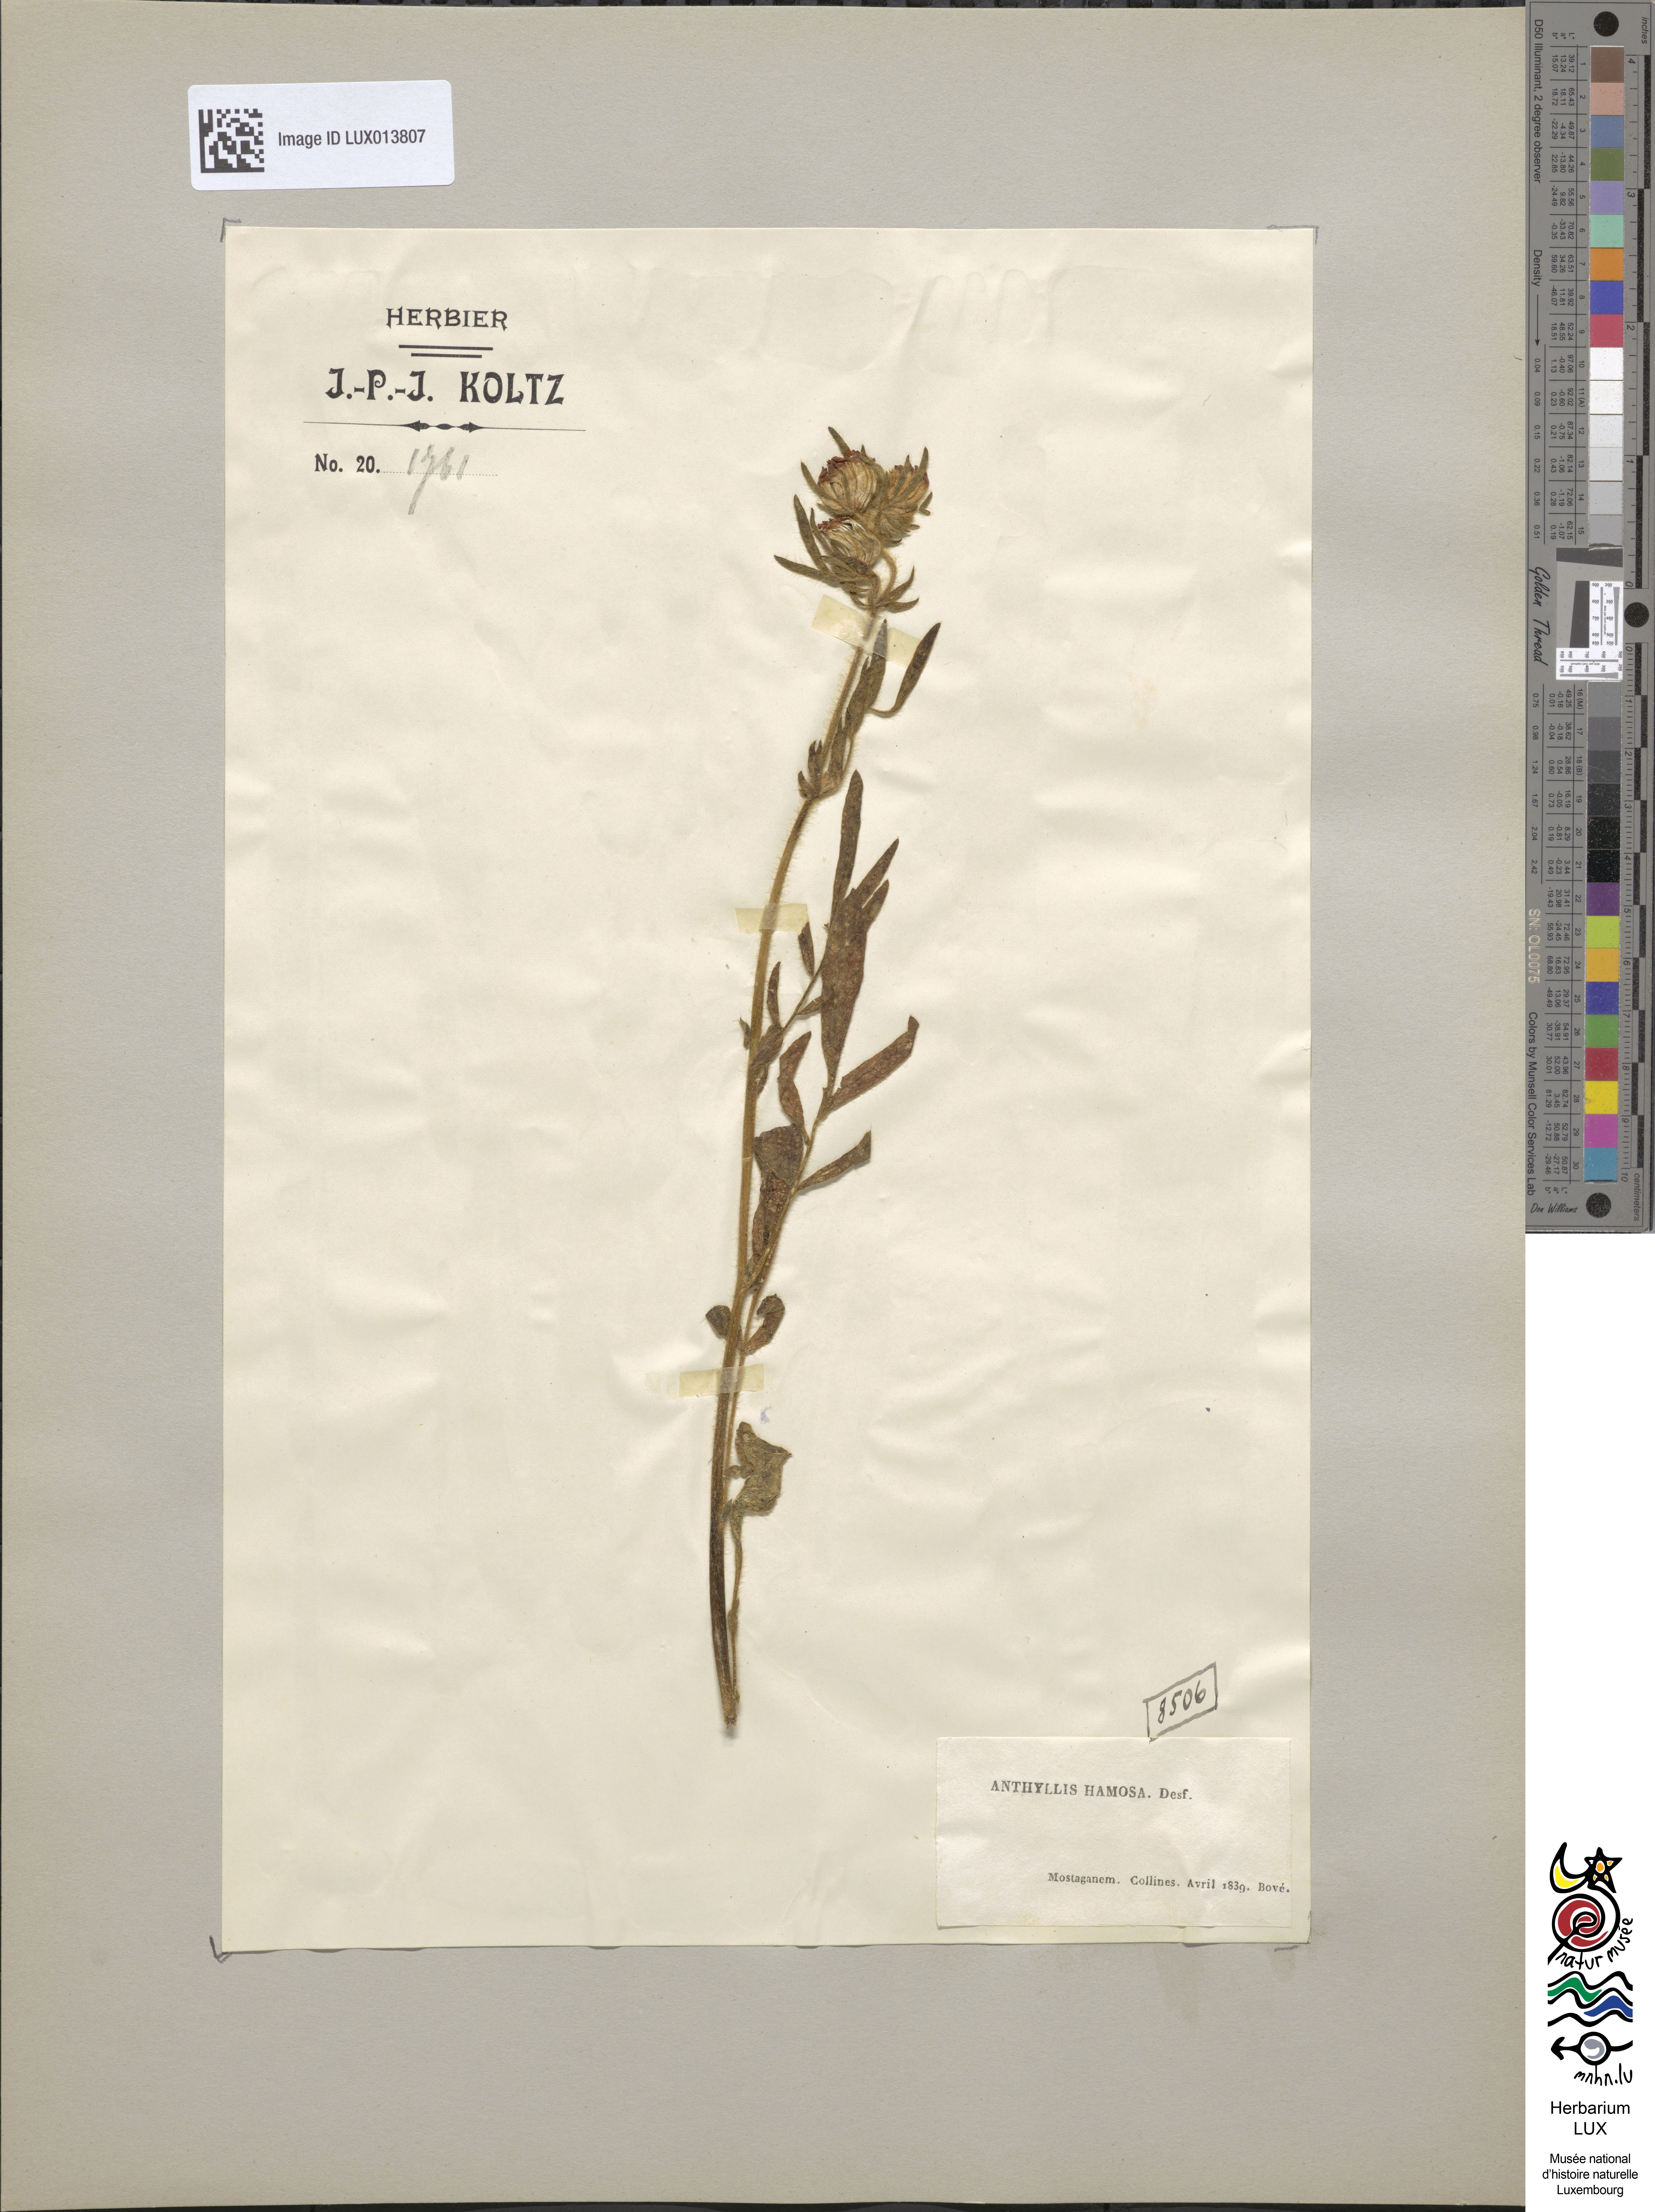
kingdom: Plantae
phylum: Tracheophyta
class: Magnoliopsida
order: Fabales
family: Fabaceae
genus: Anthyllis
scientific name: Anthyllis hamosa
